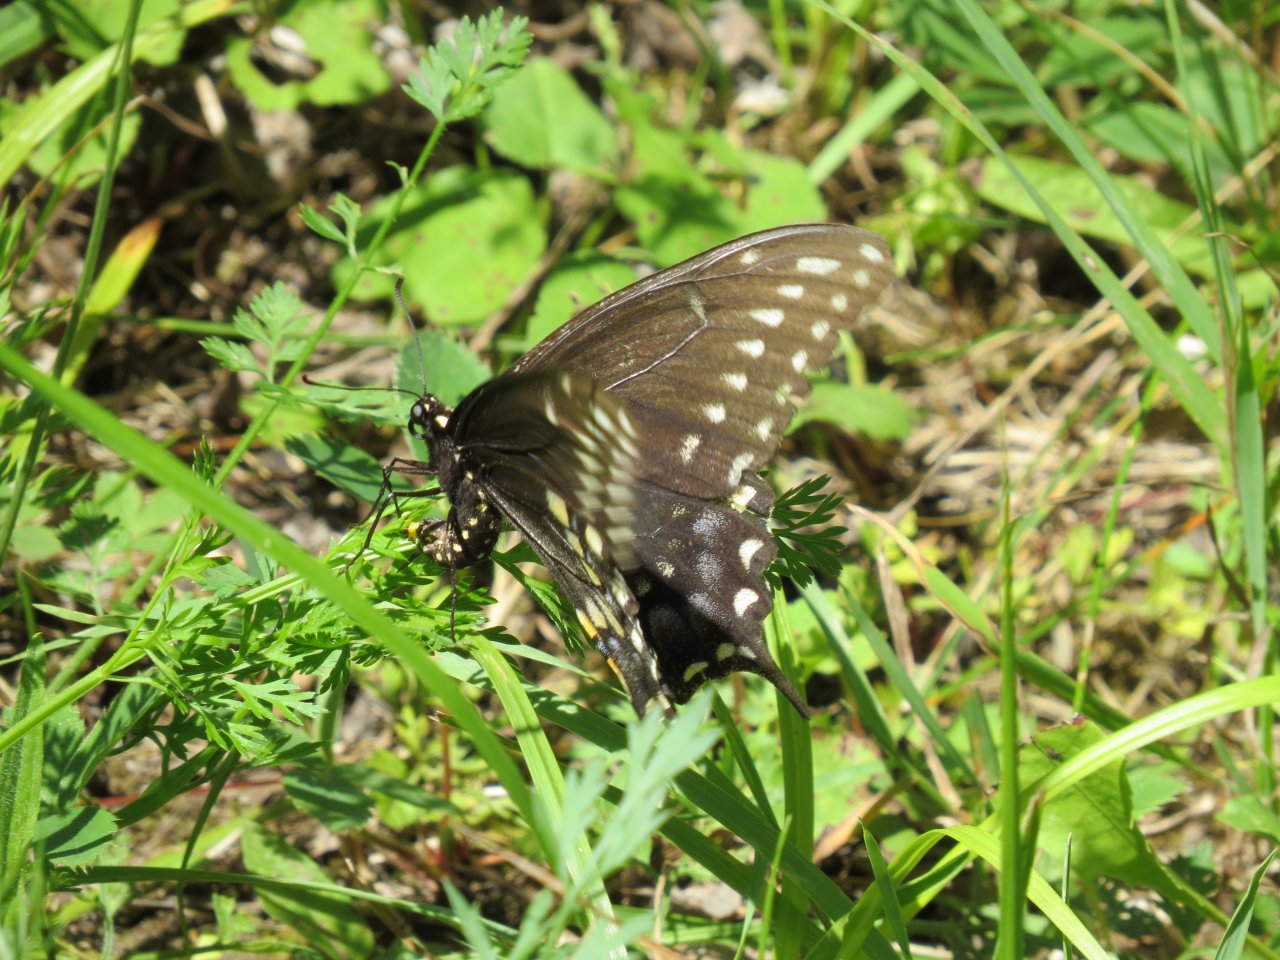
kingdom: Animalia
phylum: Arthropoda
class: Insecta
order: Lepidoptera
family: Papilionidae
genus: Papilio
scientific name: Papilio polyxenes
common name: Black Swallowtail
